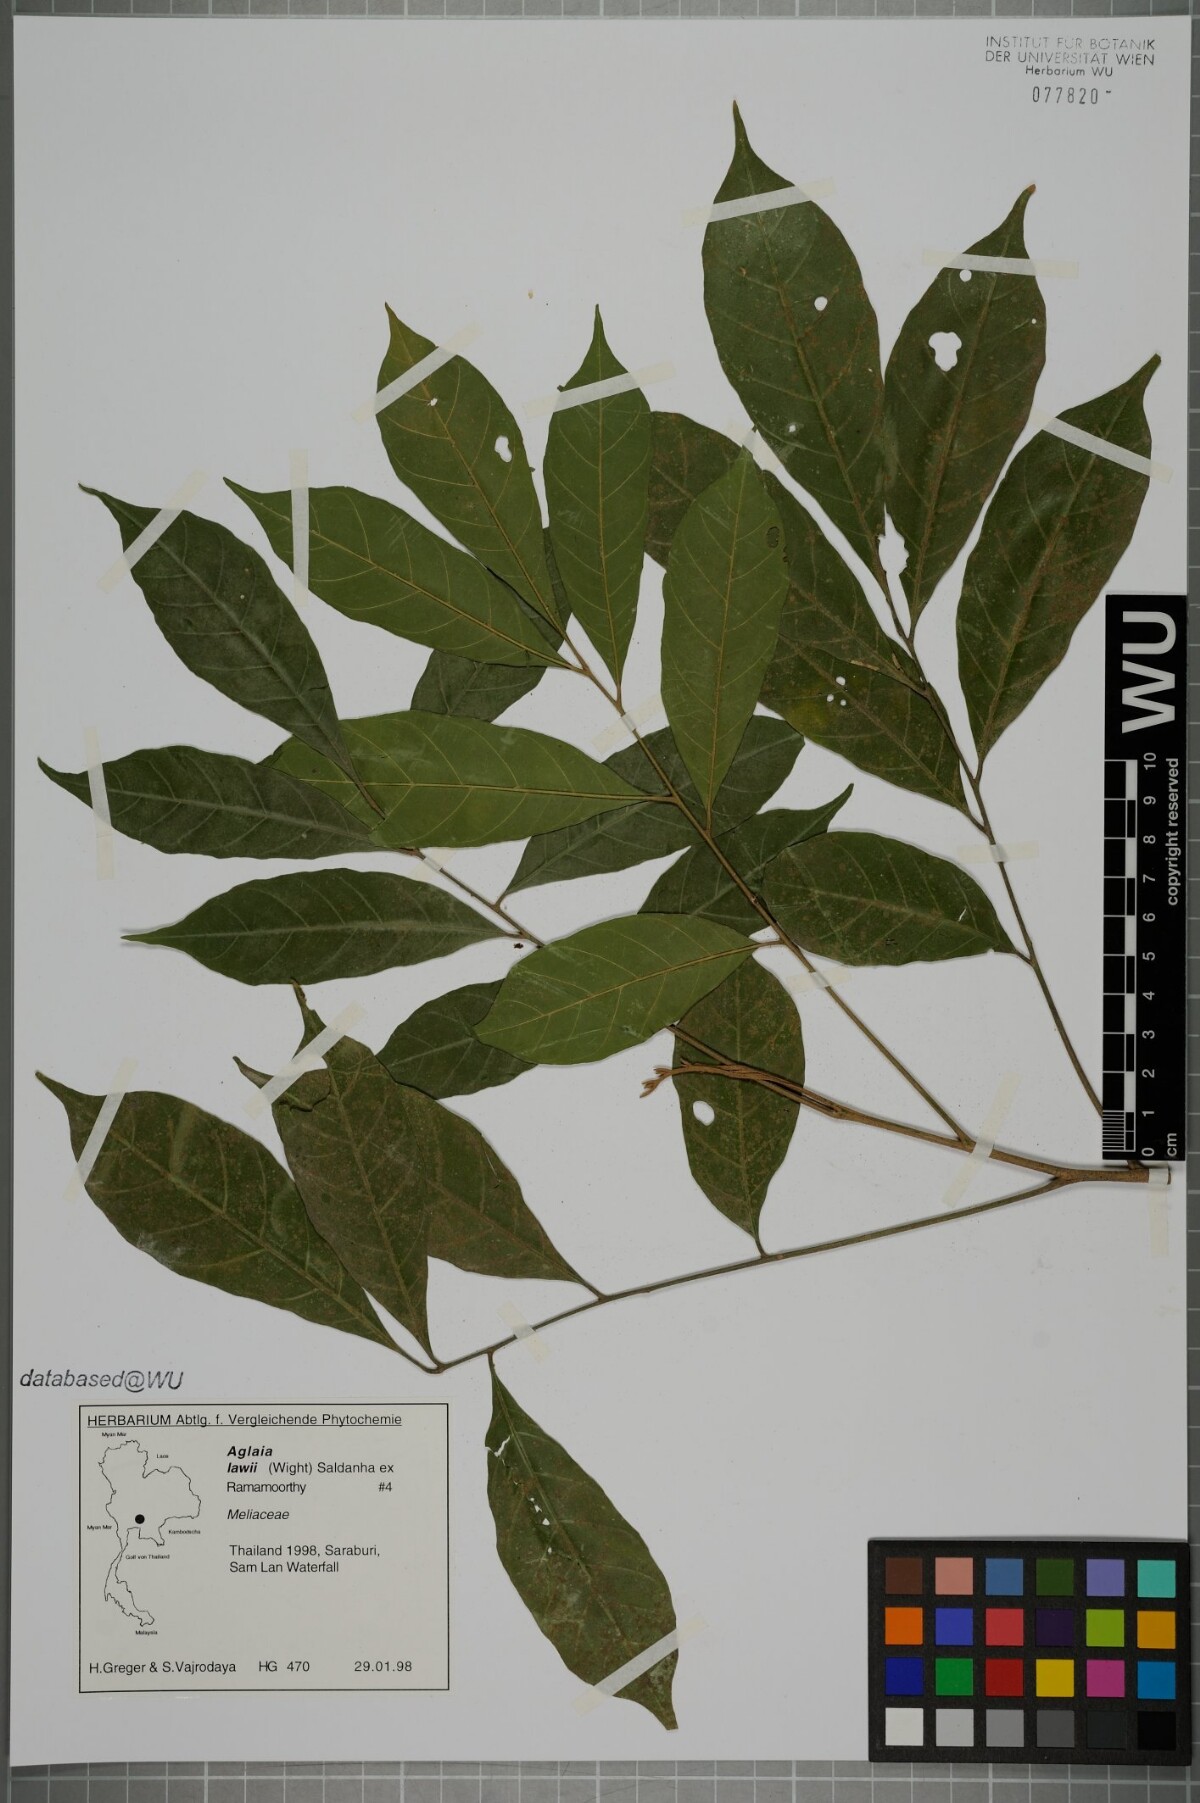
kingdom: Plantae
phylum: Tracheophyta
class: Magnoliopsida
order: Sapindales
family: Meliaceae
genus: Aglaia
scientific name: Aglaia lawii
